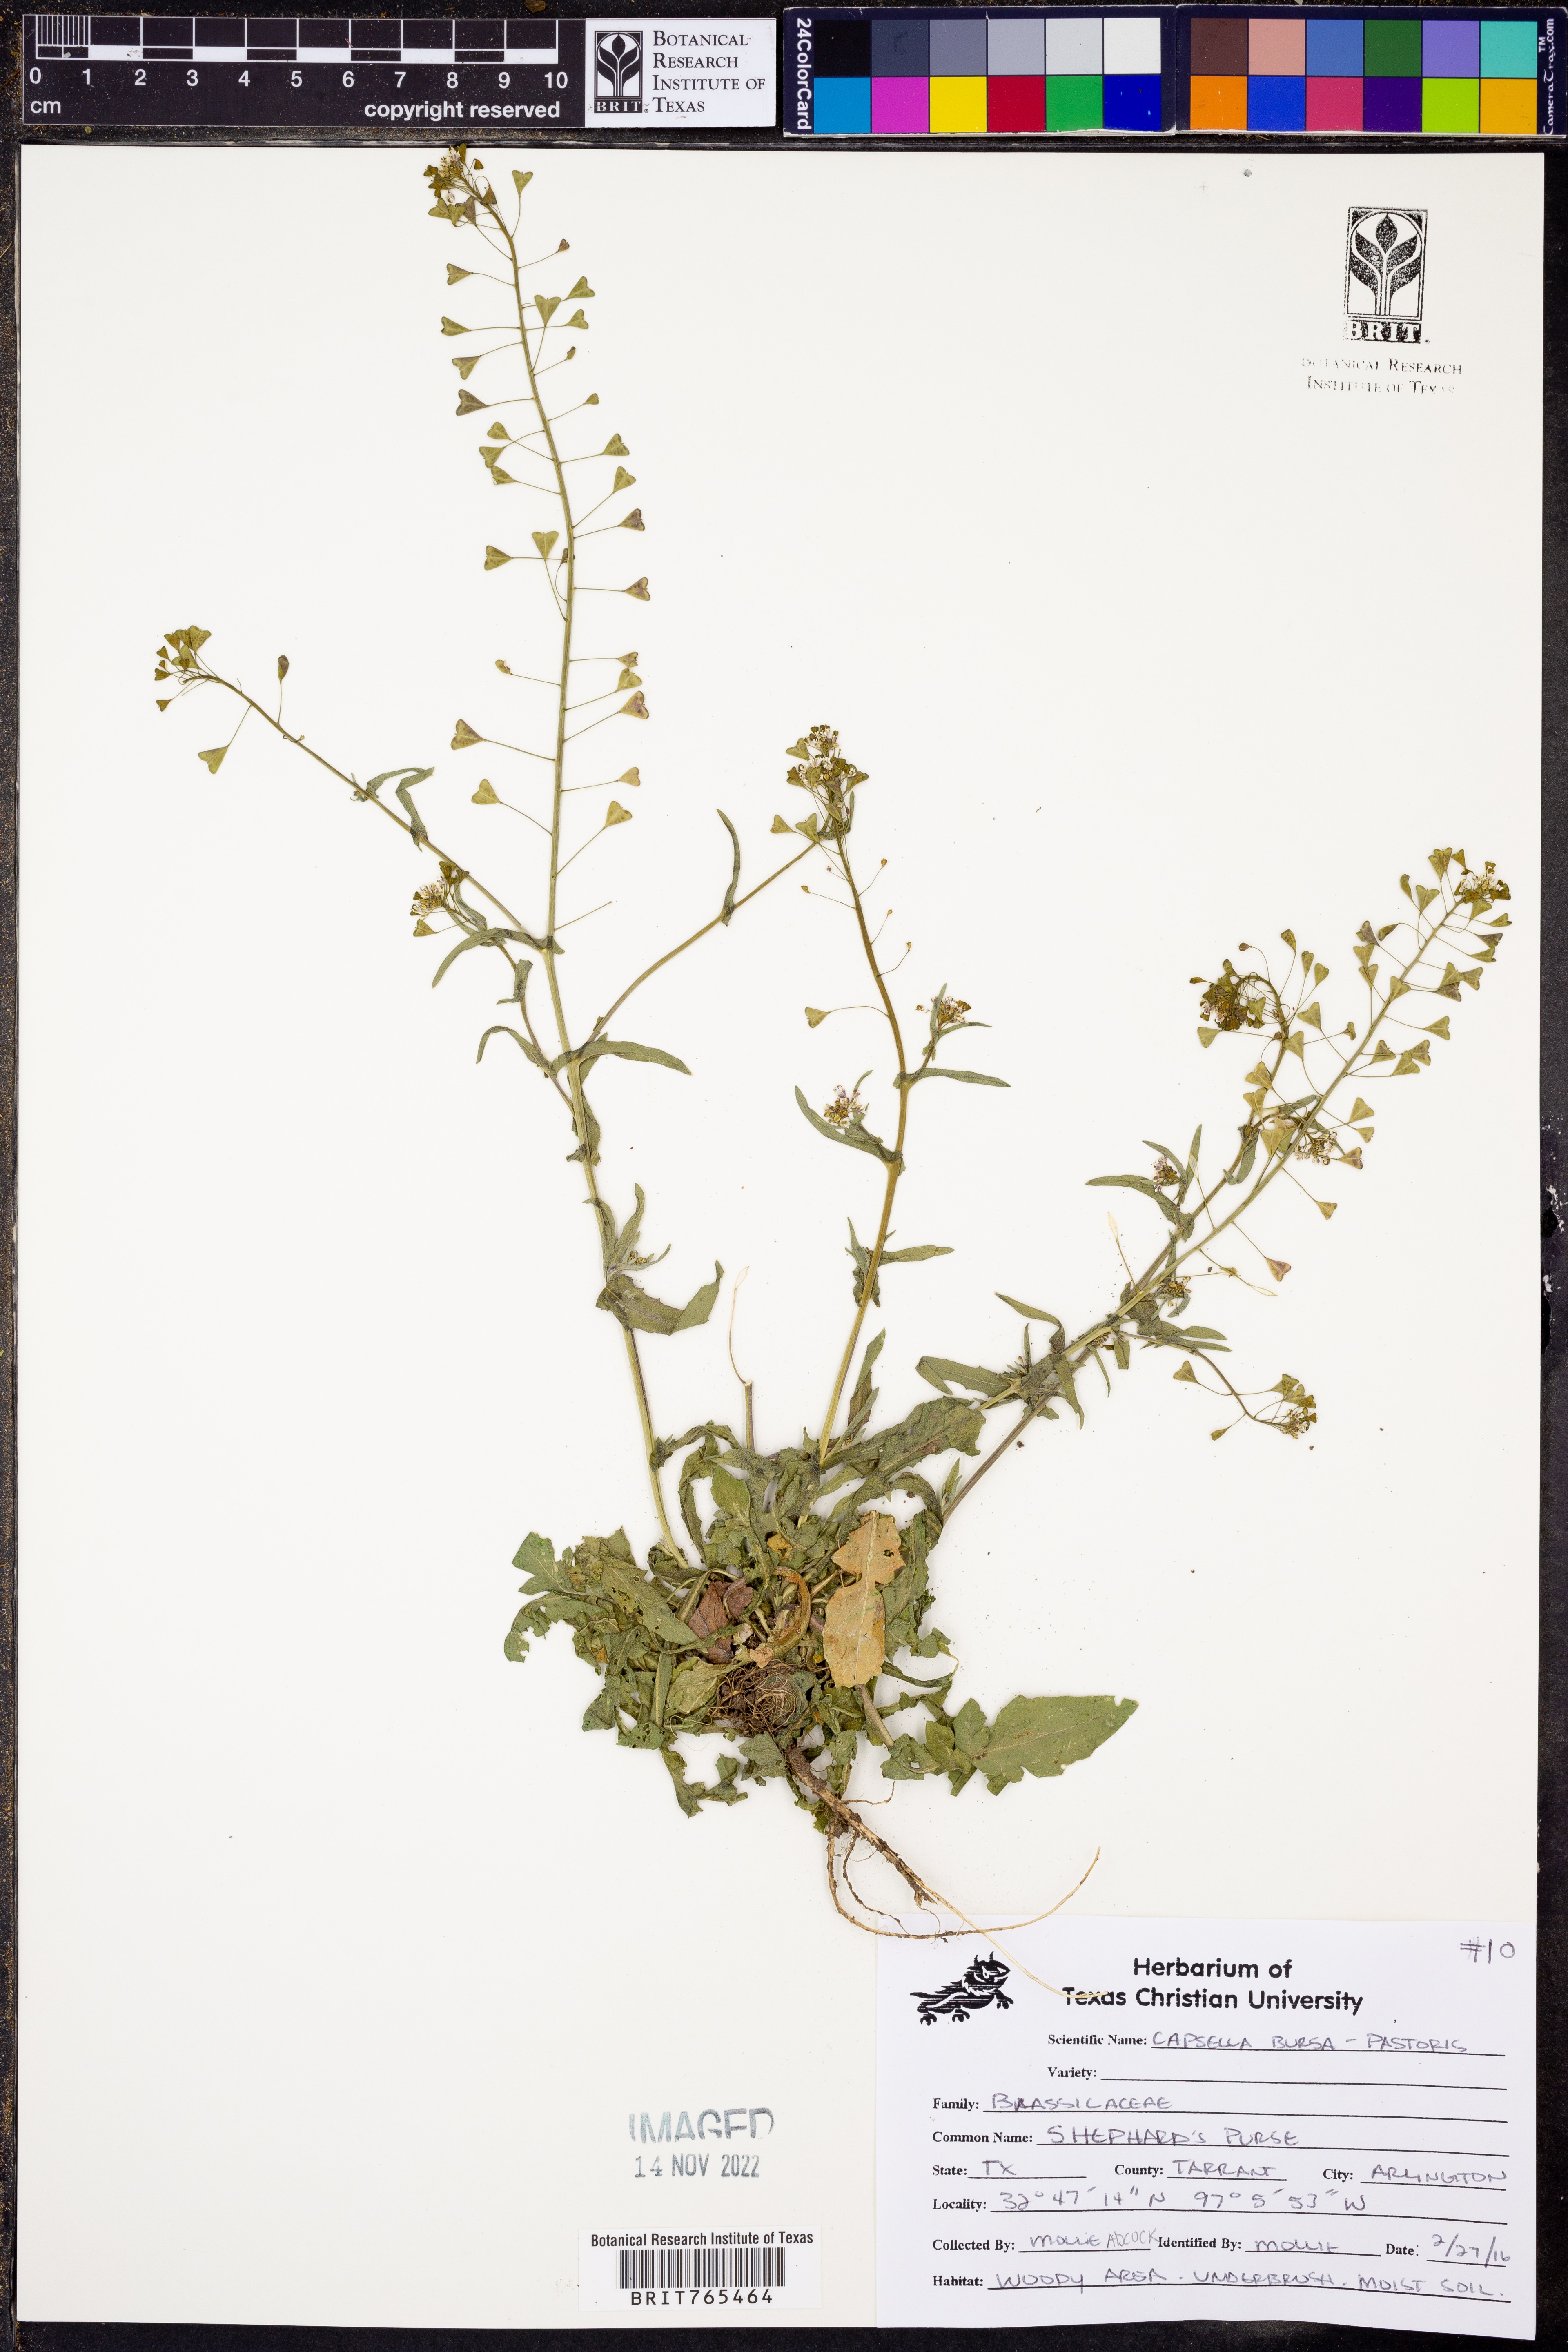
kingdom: Plantae
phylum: Tracheophyta
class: Magnoliopsida
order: Brassicales
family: Brassicaceae
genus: Capsella
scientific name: Capsella bursa-pastoris
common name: Shepherd's purse
